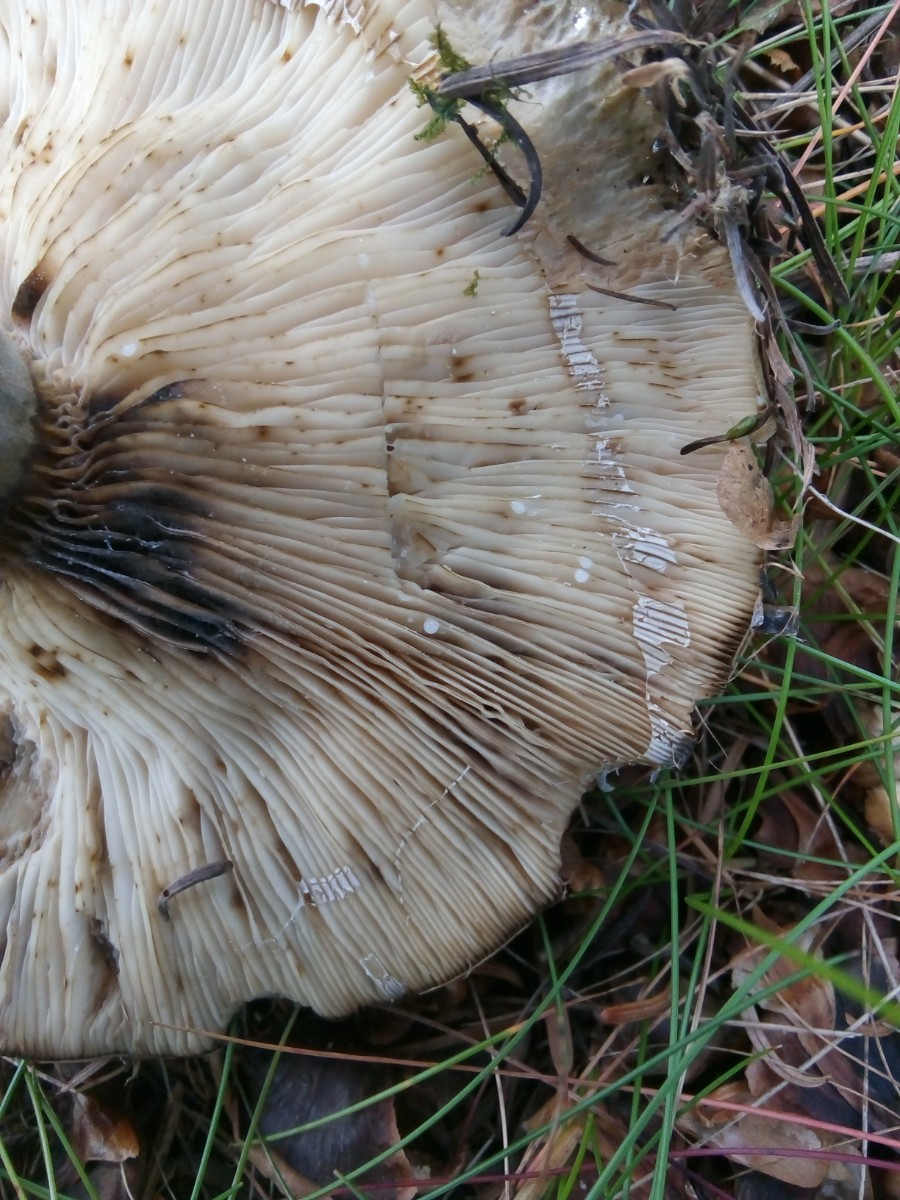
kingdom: Fungi
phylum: Basidiomycota
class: Agaricomycetes
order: Russulales
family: Russulaceae
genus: Lactarius
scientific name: Lactarius necator
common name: manddraber-mælkehat
